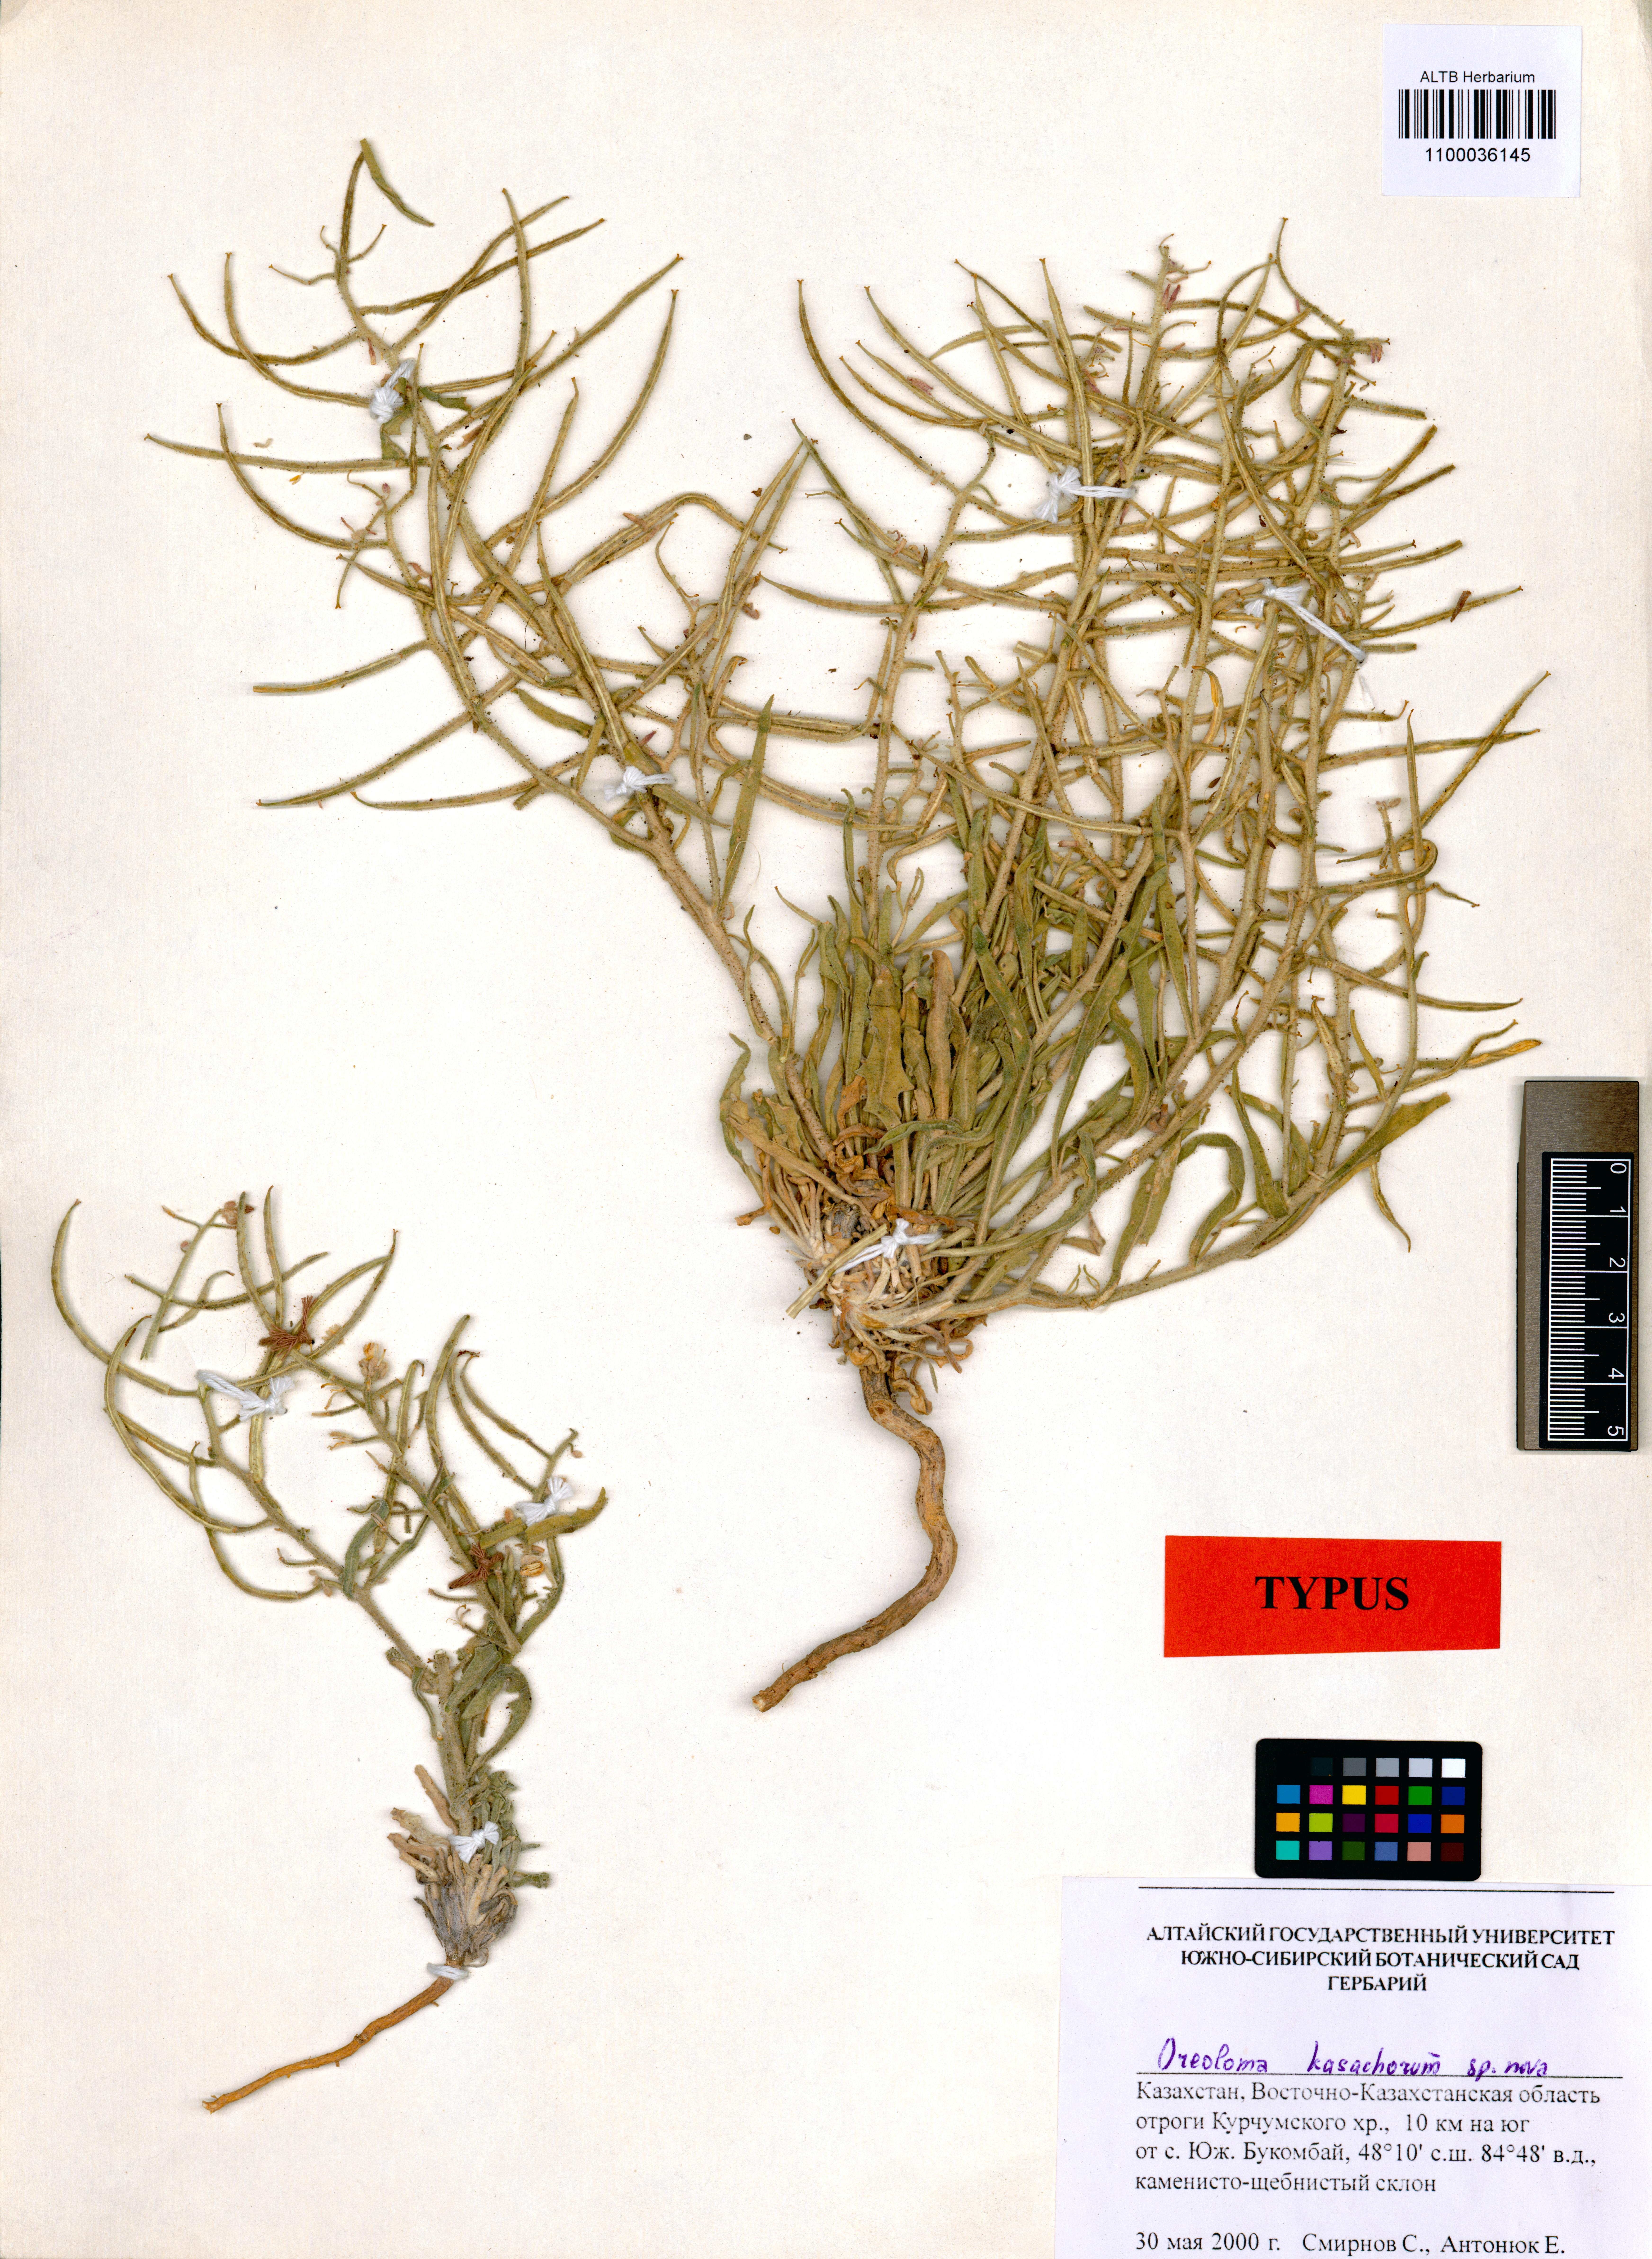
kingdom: Plantae
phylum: Tracheophyta
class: Magnoliopsida
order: Brassicales
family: Brassicaceae
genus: Sterigmostemum
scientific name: Sterigmostemum schmakovii
